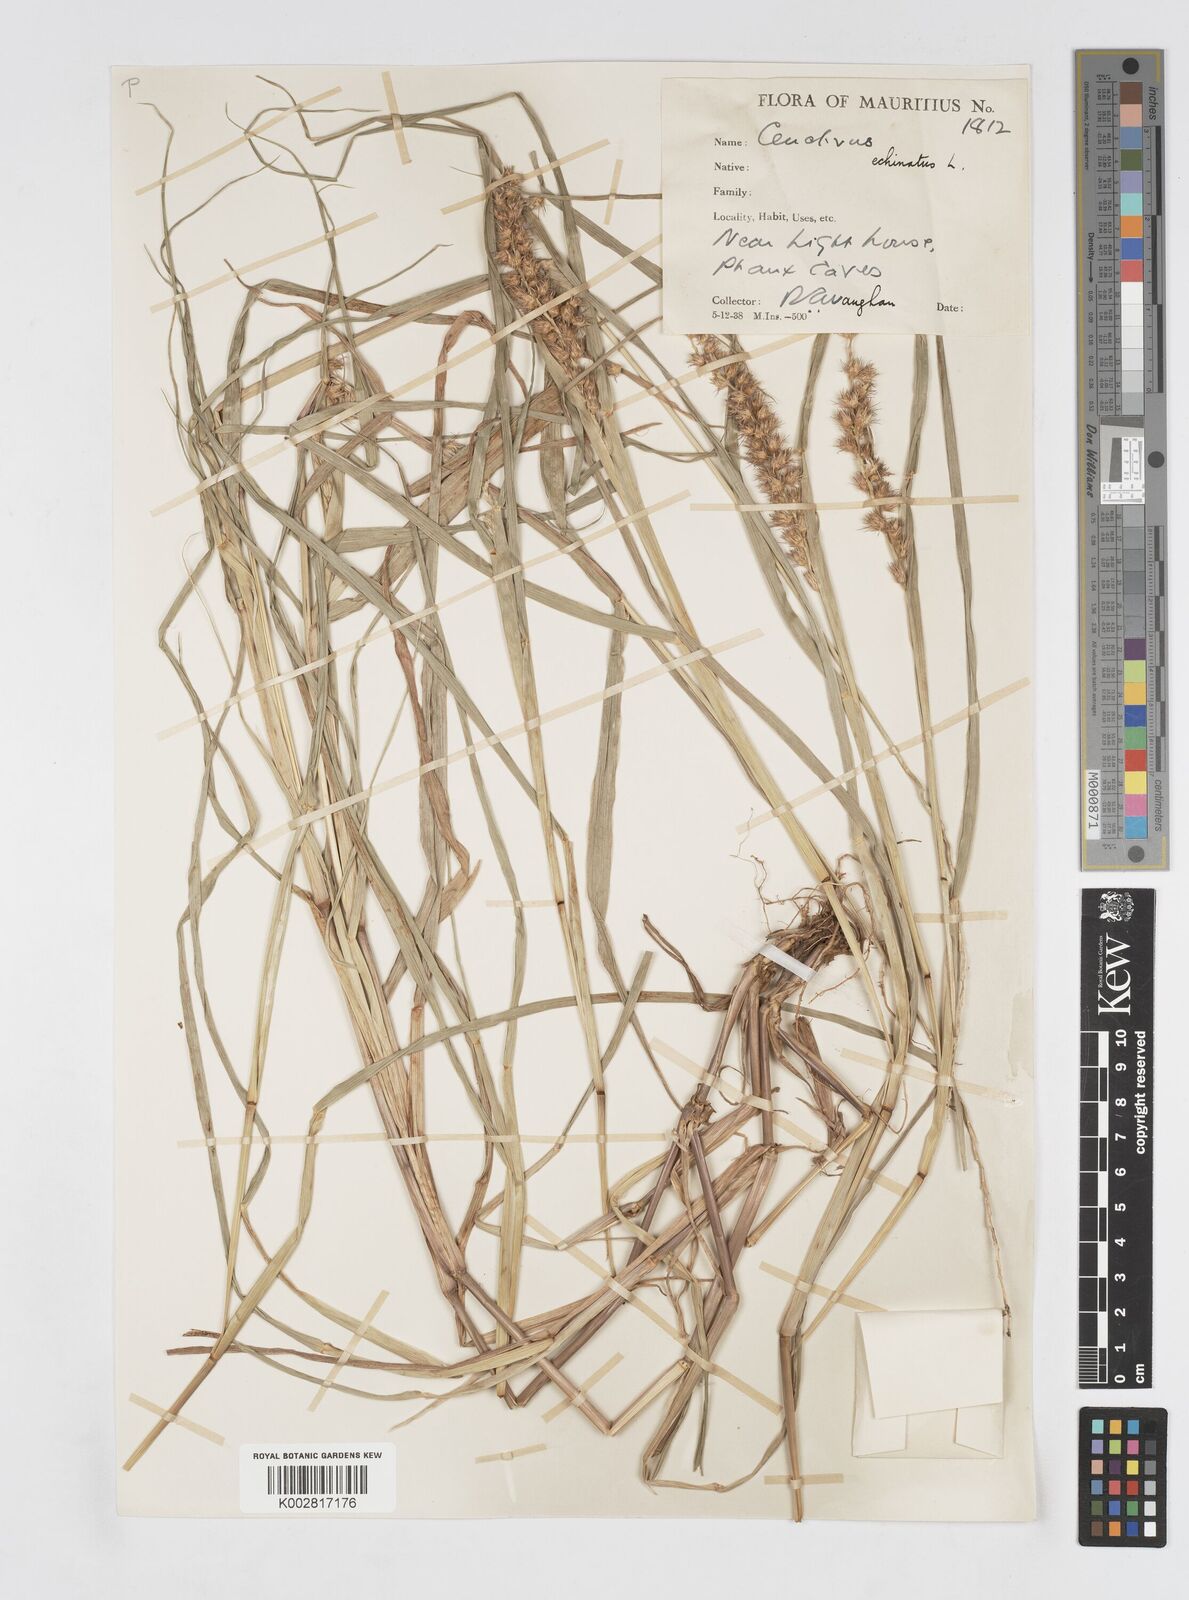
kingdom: Plantae
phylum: Tracheophyta
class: Liliopsida
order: Poales
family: Poaceae
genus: Cenchrus
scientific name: Cenchrus
